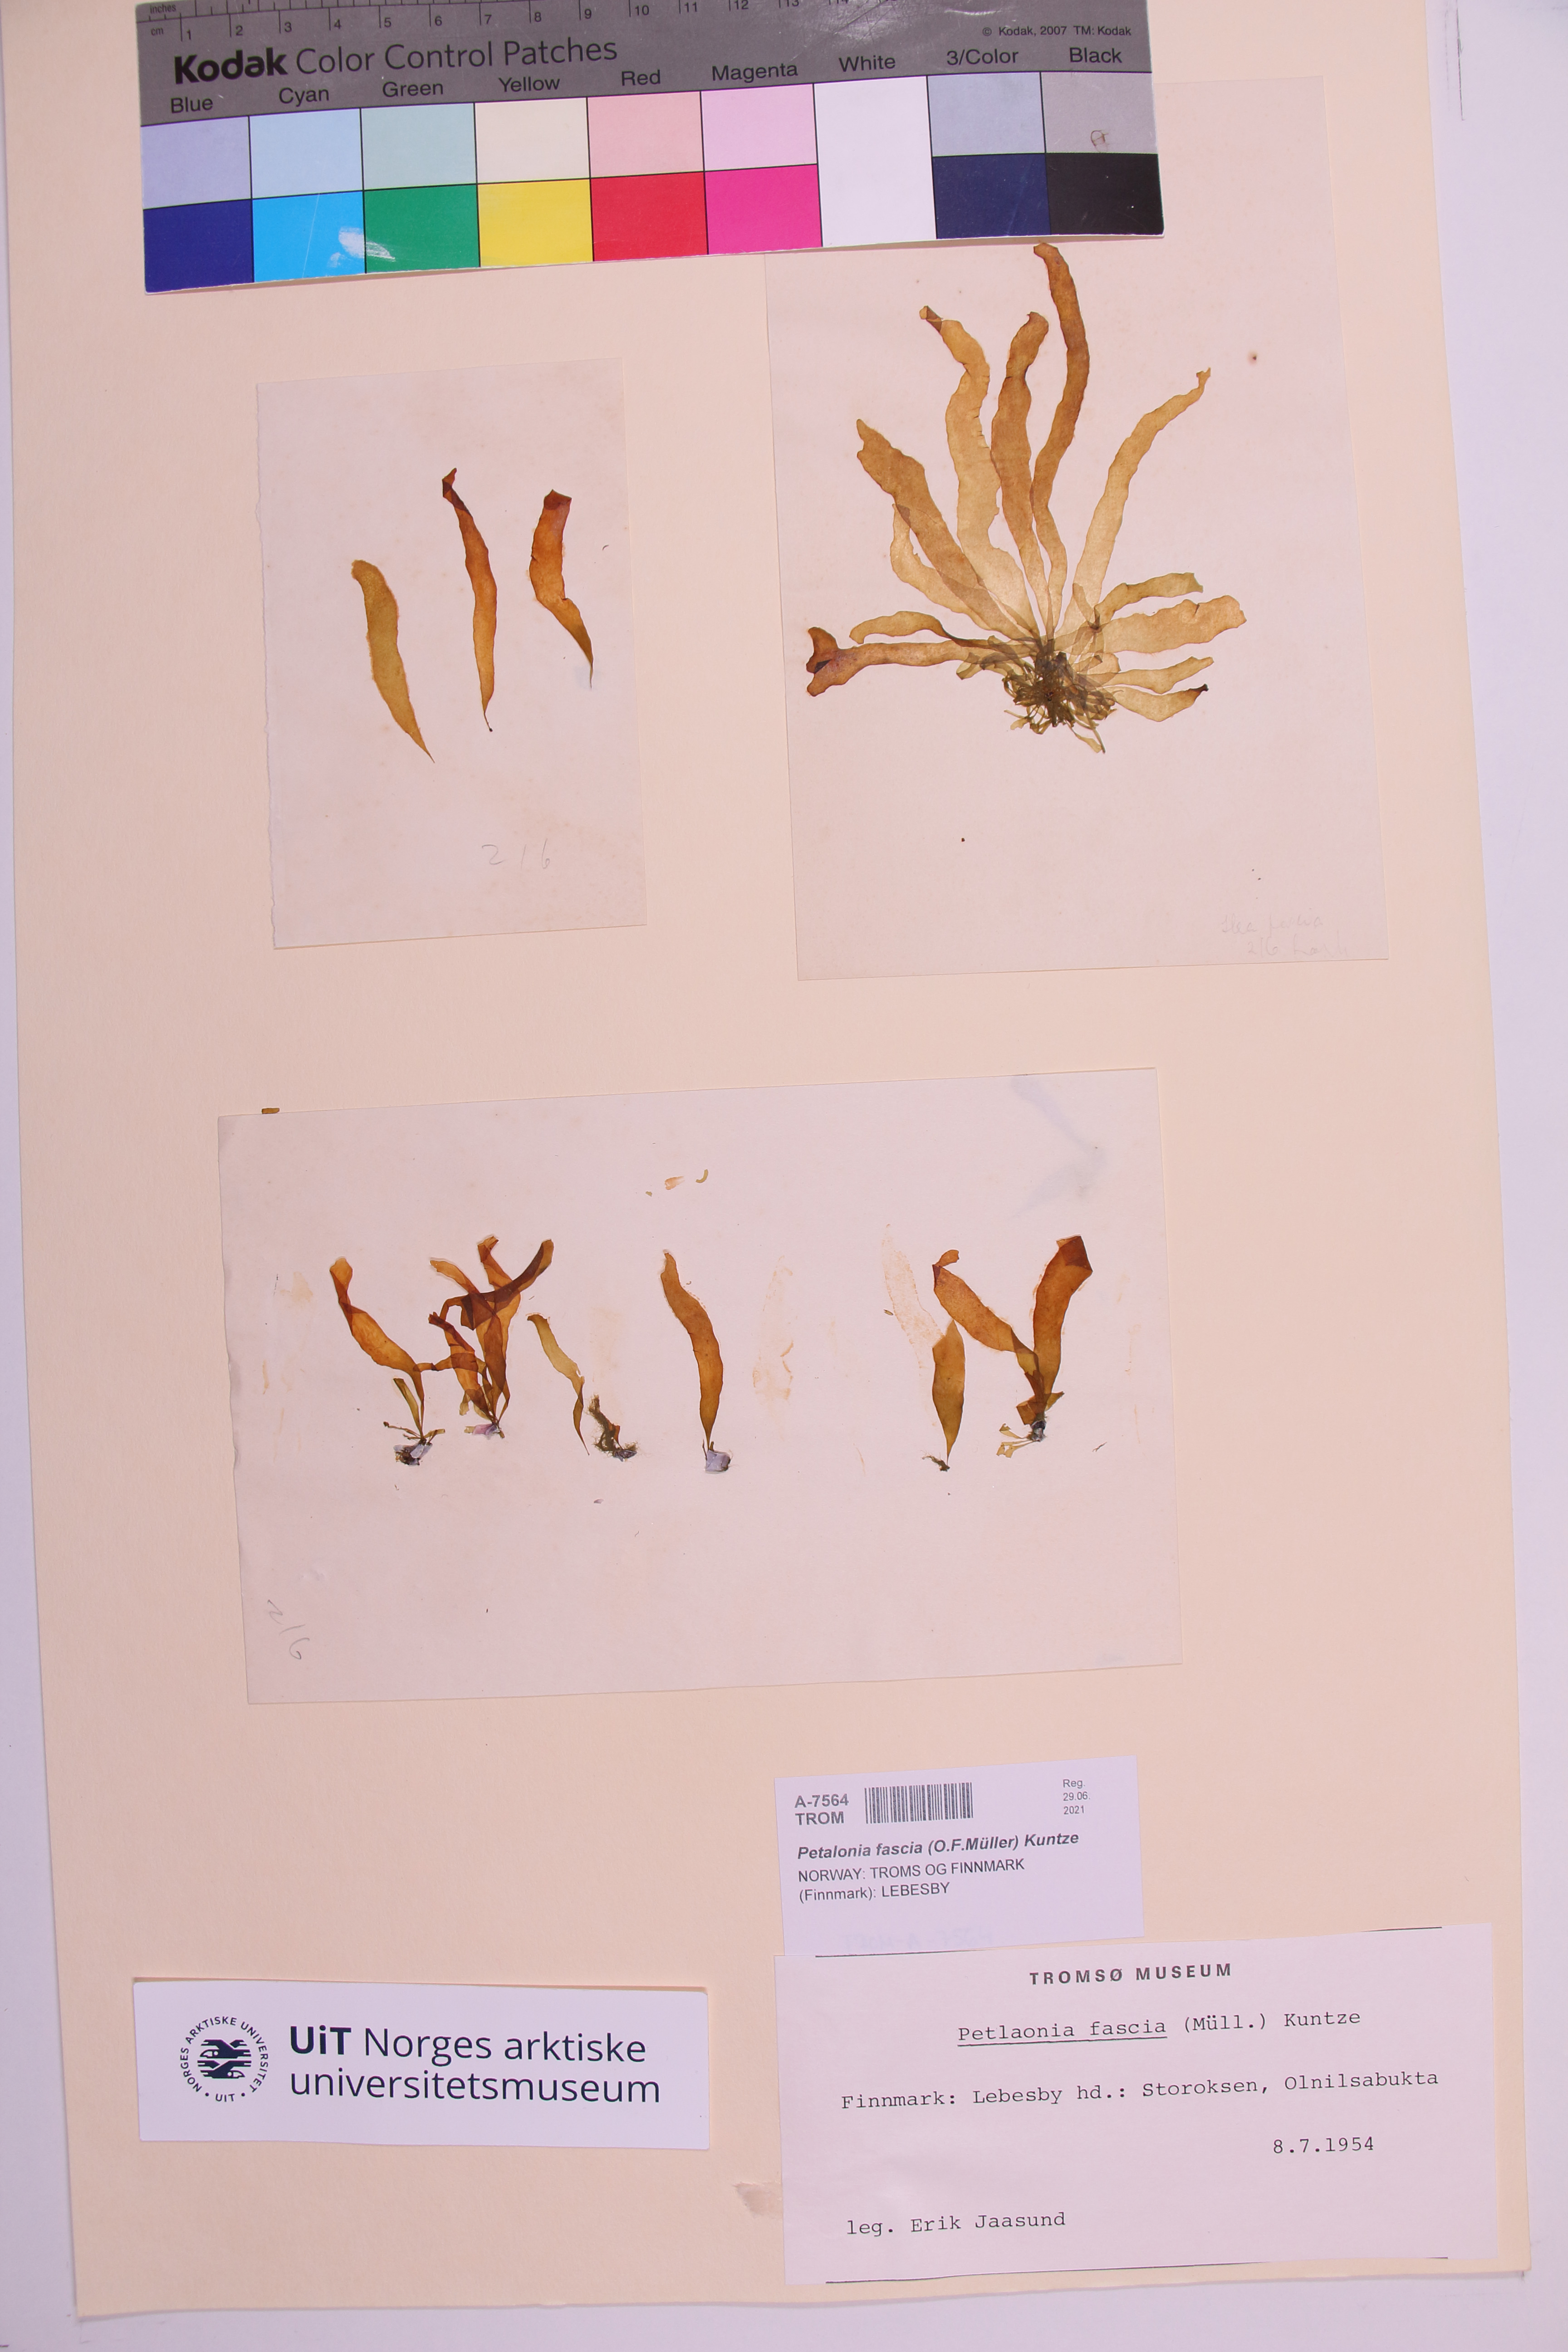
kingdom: Chromista
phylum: Ochrophyta
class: Phaeophyceae
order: Scytosiphonales
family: Scytosiphonaceae
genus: Petalonia
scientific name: Petalonia fascia
